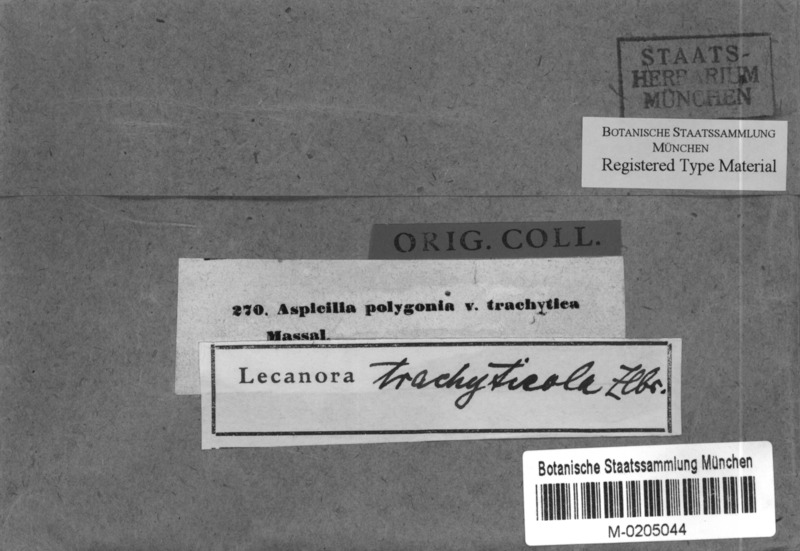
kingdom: Fungi
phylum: Ascomycota
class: Lecanoromycetes
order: Pertusariales
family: Megasporaceae
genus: Aspicilia
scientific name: Aspicilia trachytica
